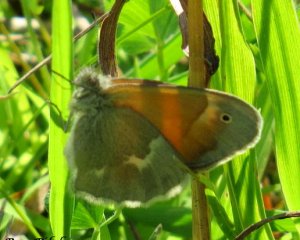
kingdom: Animalia
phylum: Arthropoda
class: Insecta
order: Lepidoptera
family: Nymphalidae
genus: Coenonympha
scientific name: Coenonympha tullia
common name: Large Heath
